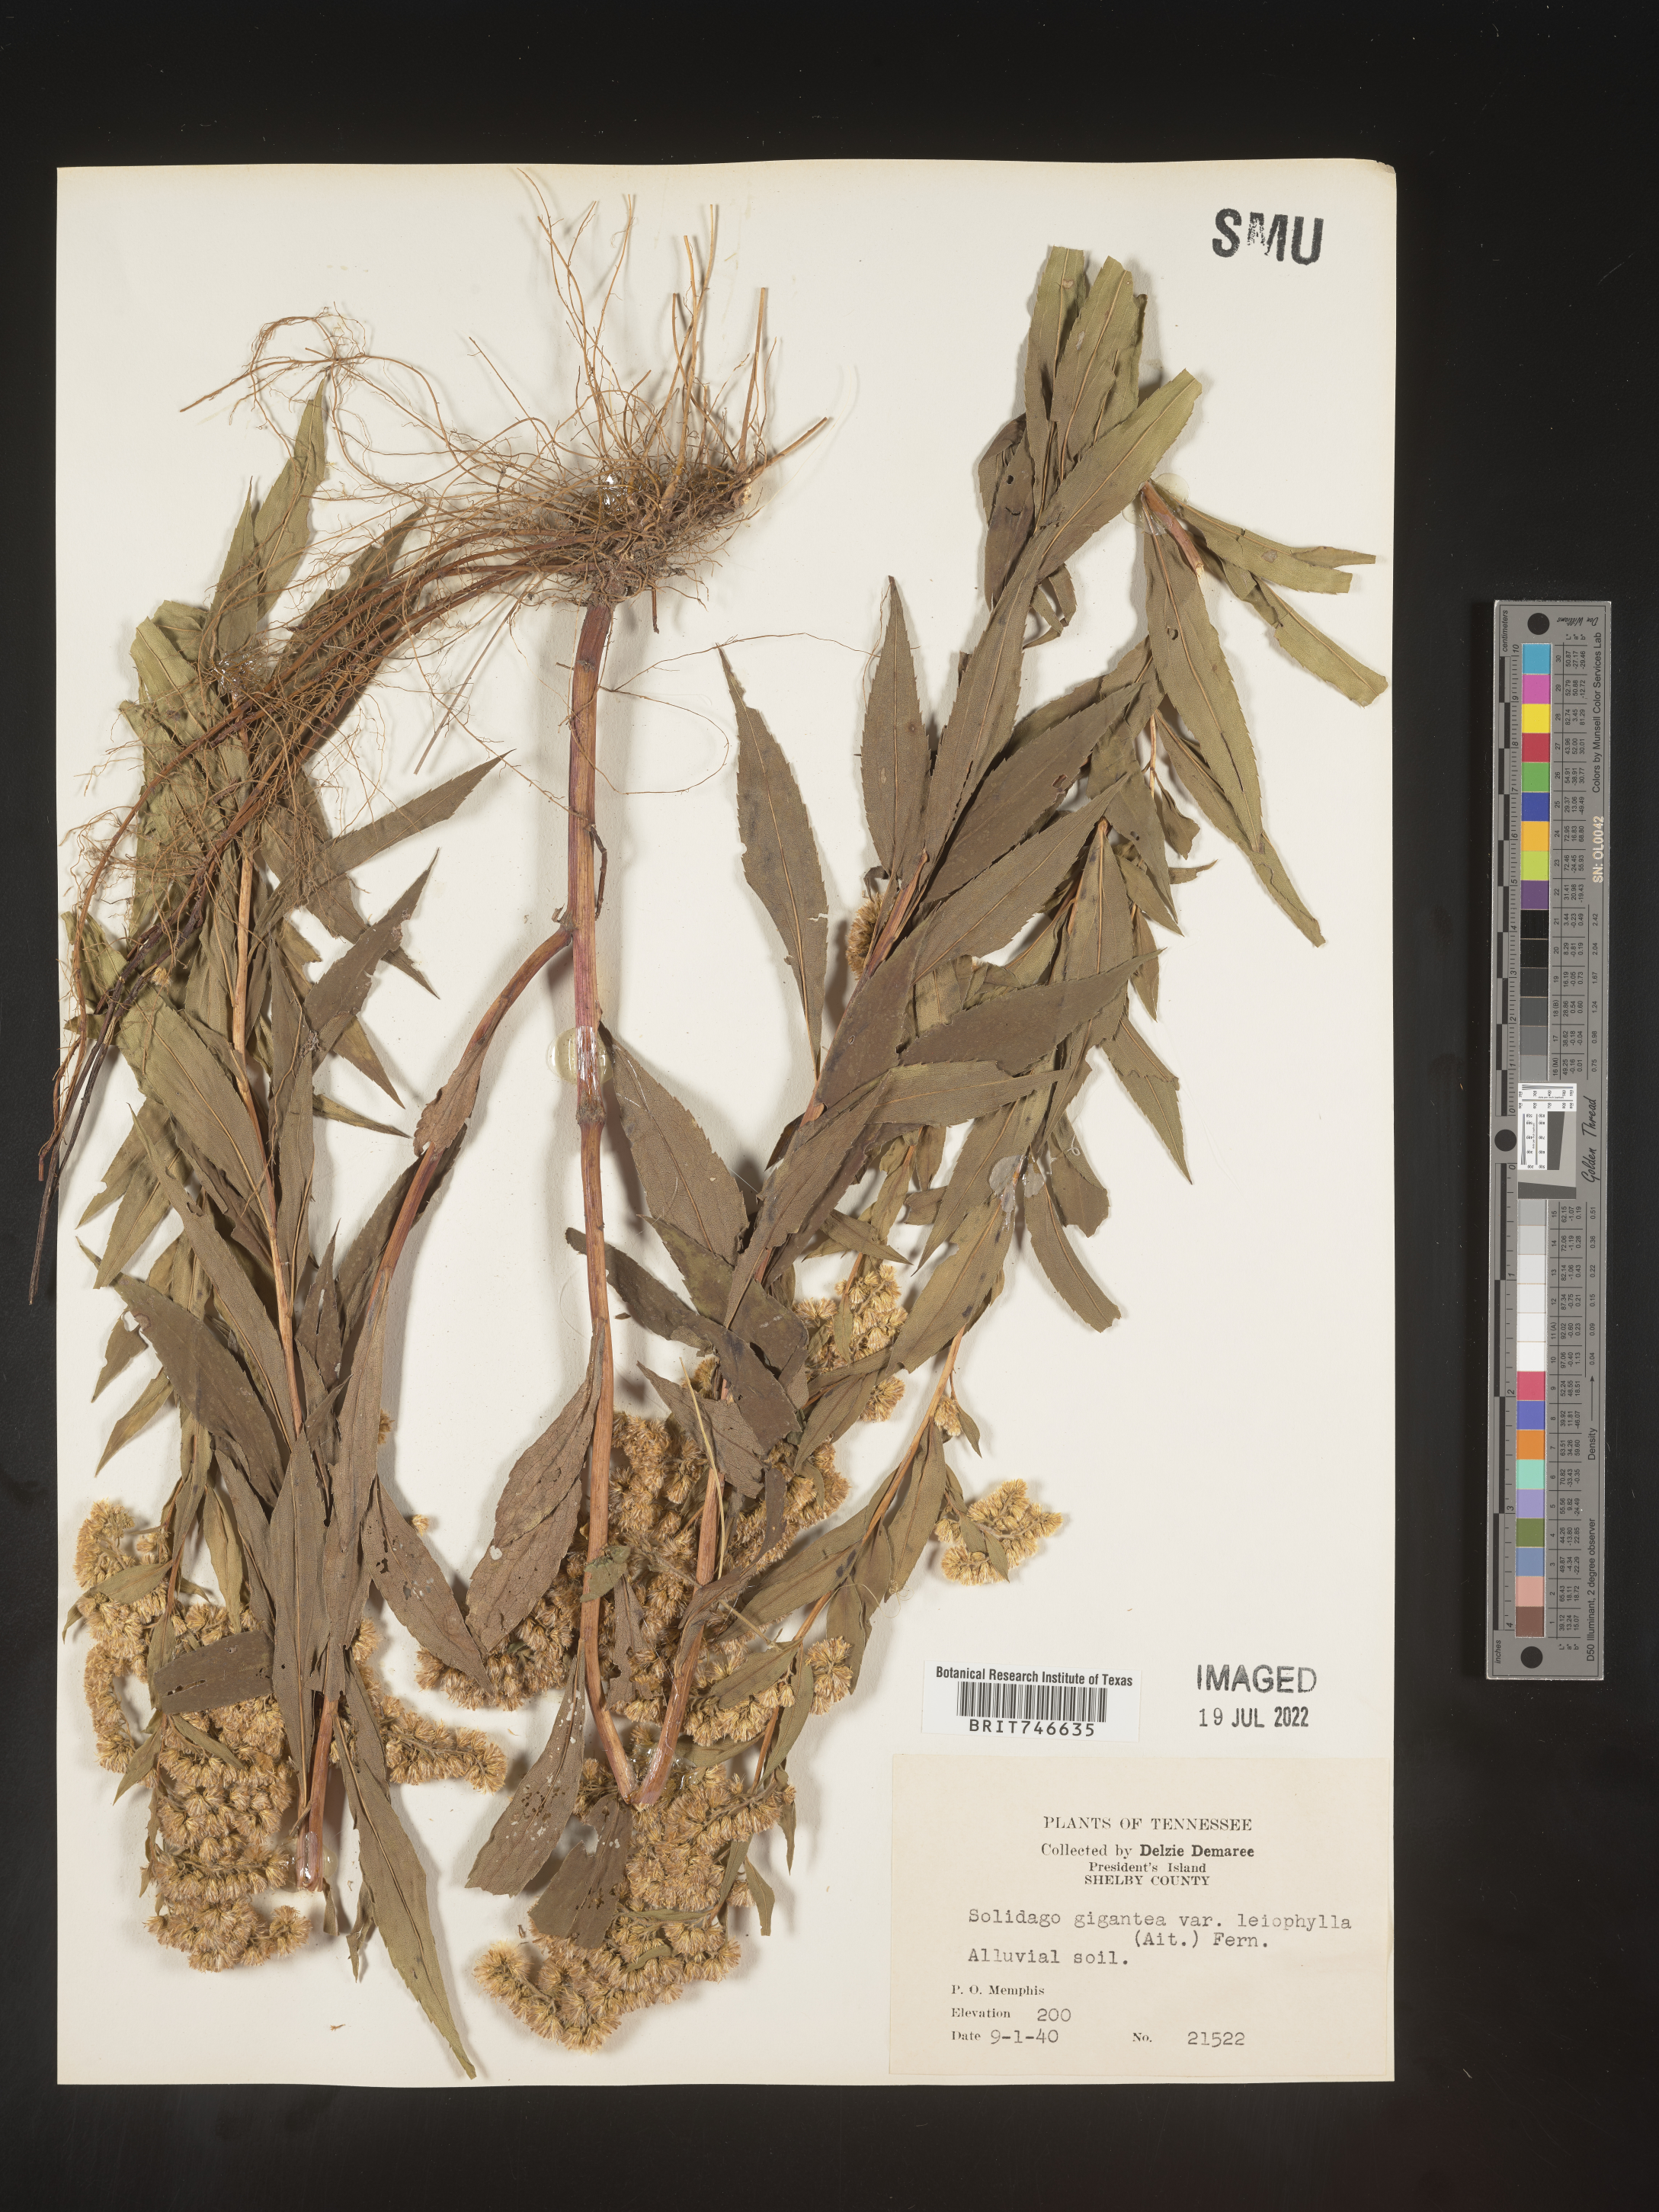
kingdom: Plantae
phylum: Tracheophyta
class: Magnoliopsida
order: Asterales
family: Asteraceae
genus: Solidago
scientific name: Solidago gigantea
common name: Giant goldenrod
